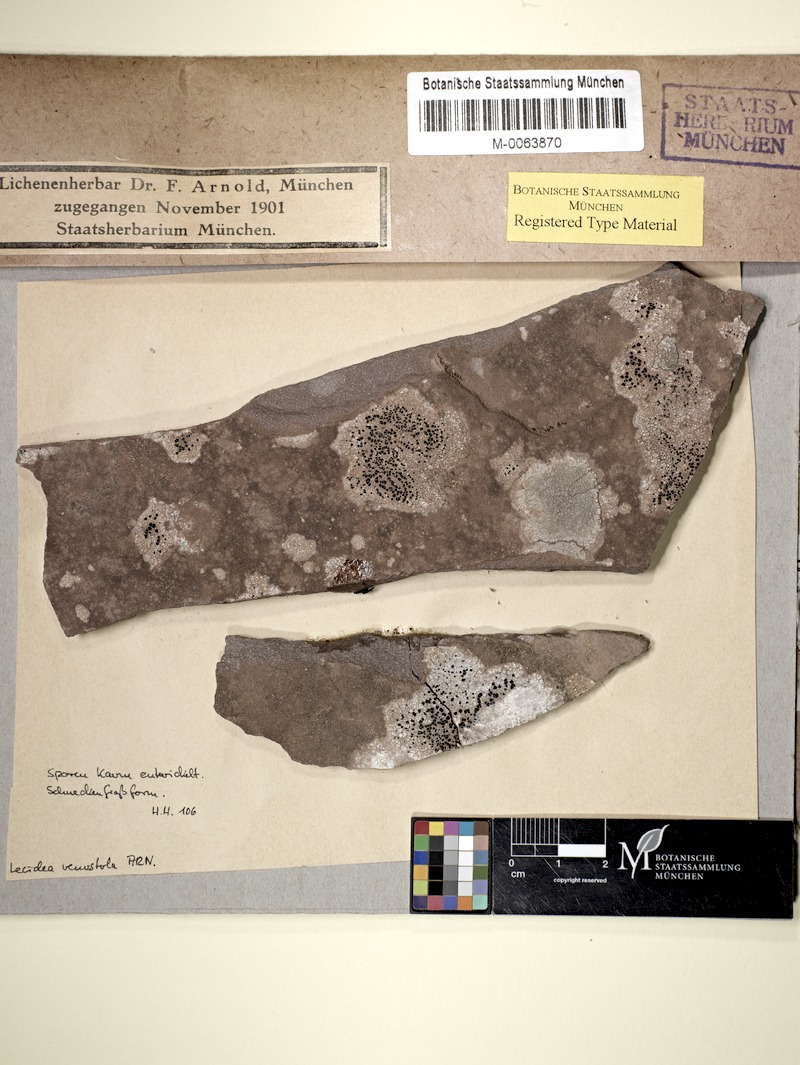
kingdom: Fungi
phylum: Ascomycota
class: Lecanoromycetes
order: Lecideales
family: Lecideaceae
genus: Lecidea
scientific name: Lecidea confluescens
